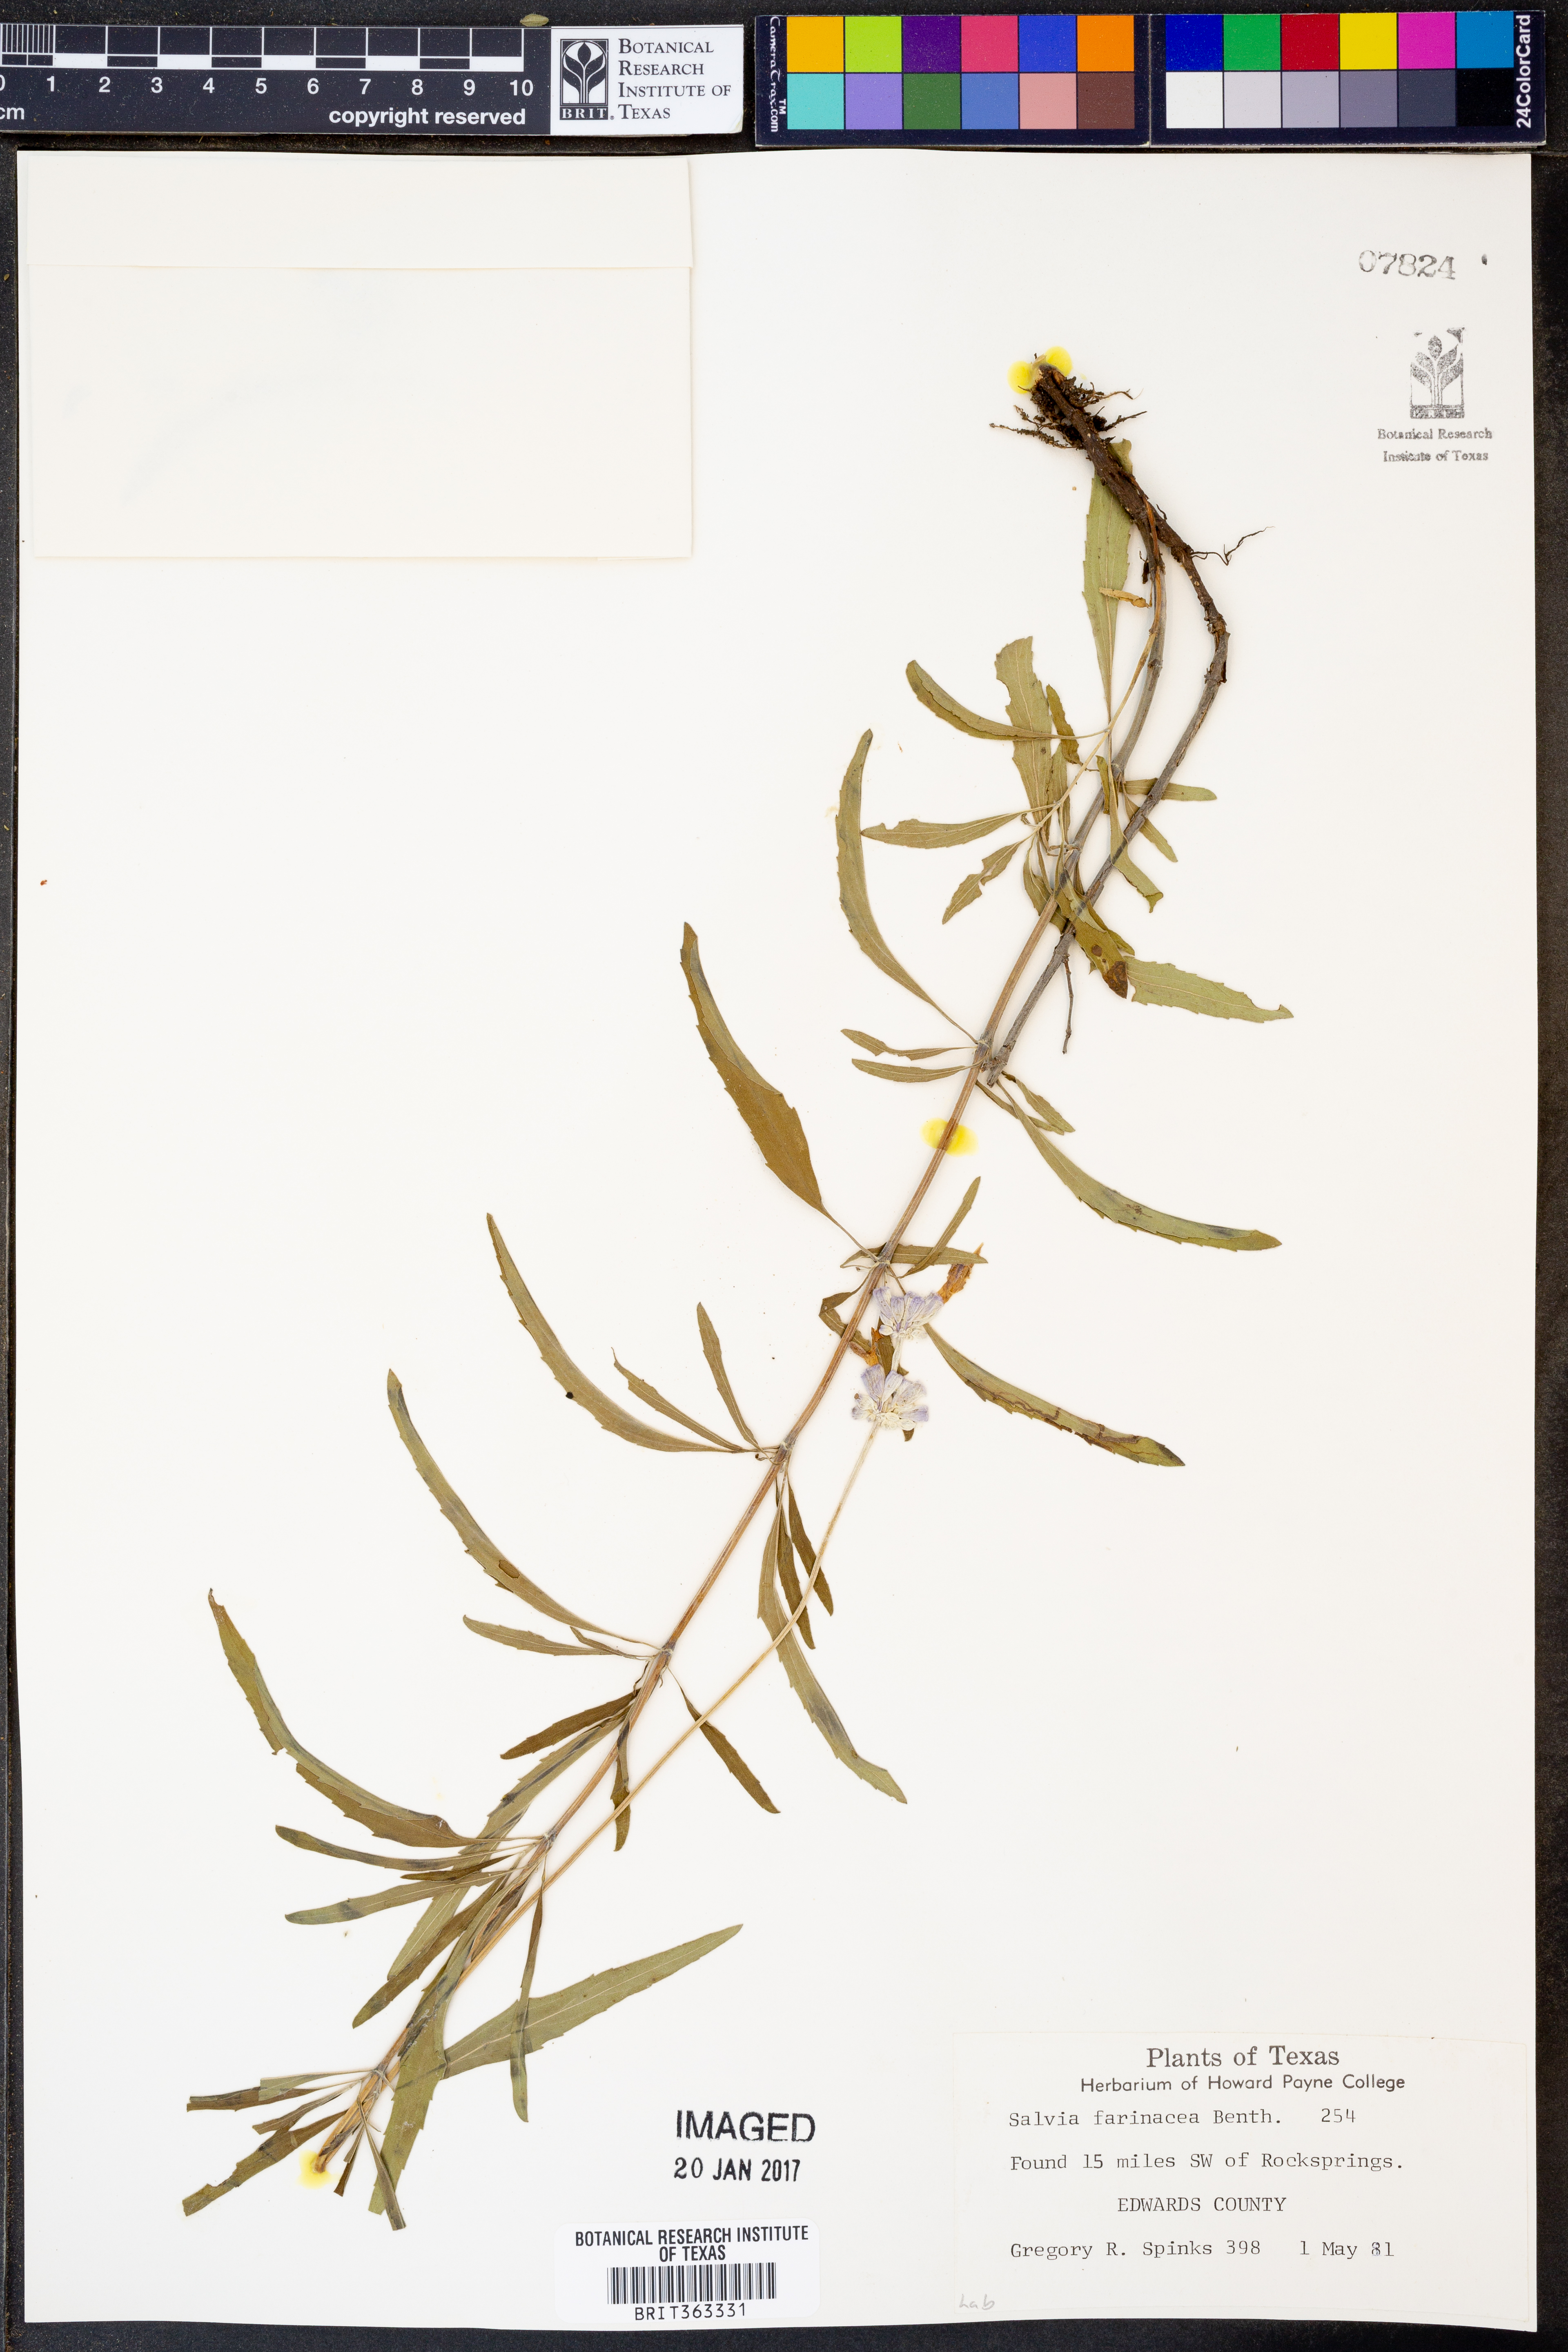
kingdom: Plantae
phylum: Tracheophyta
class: Magnoliopsida
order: Lamiales
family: Lamiaceae
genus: Salvia
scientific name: Salvia farinacea
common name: Mealy sage
